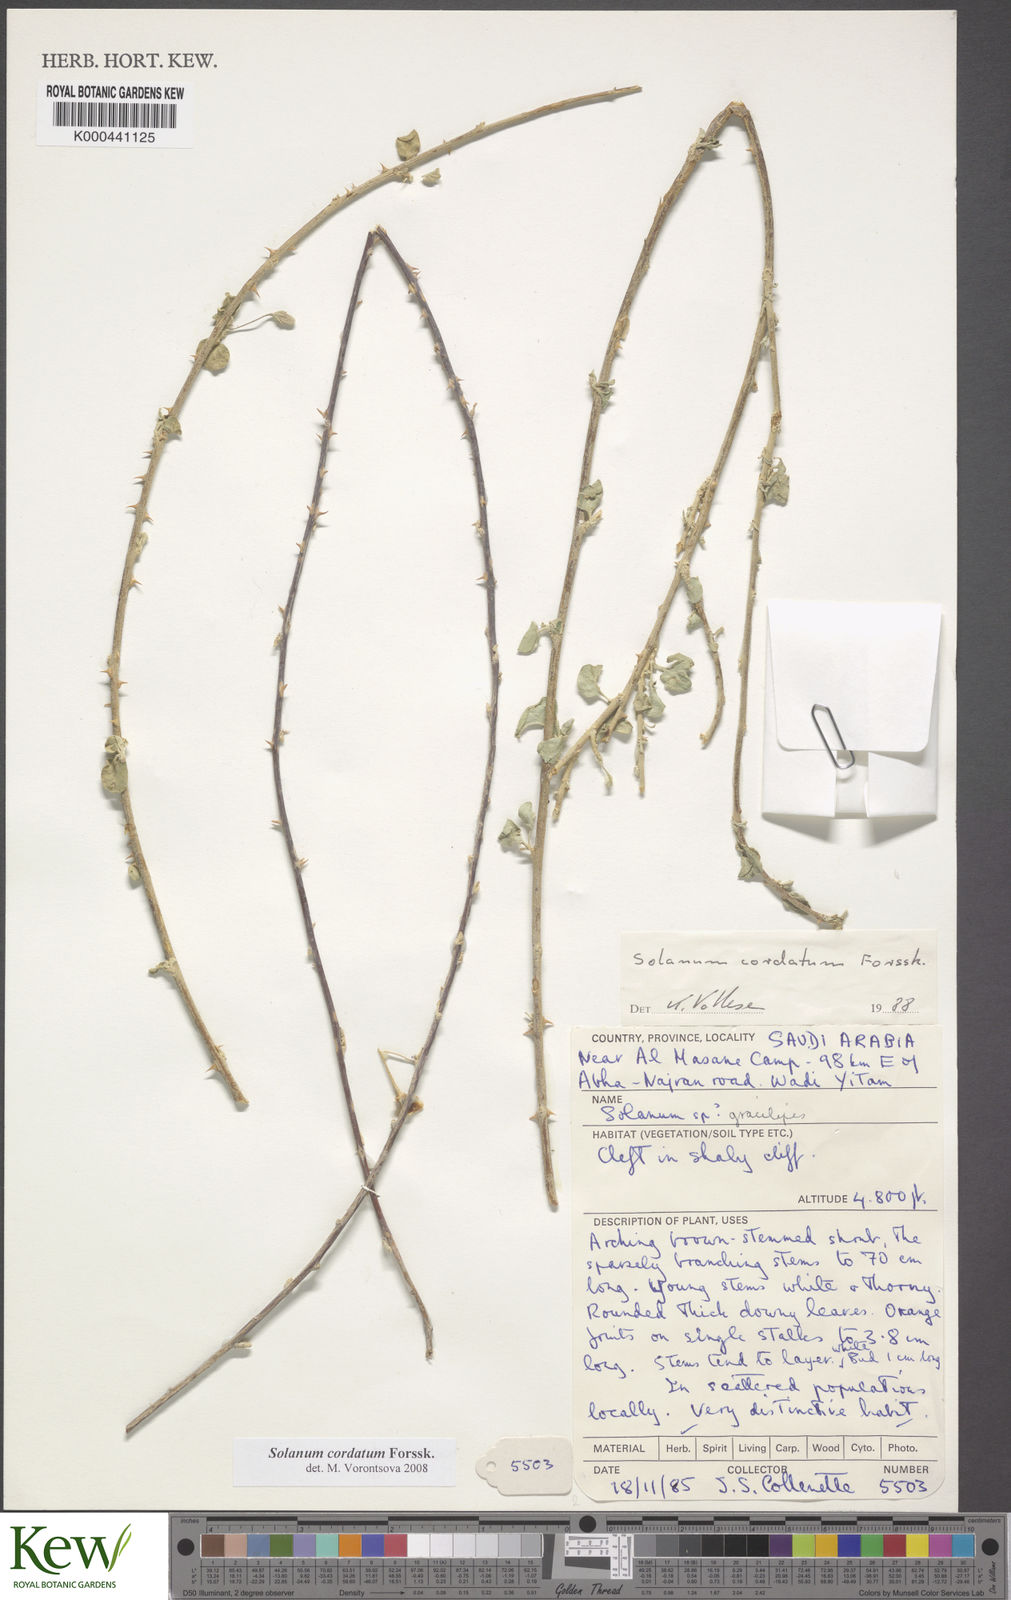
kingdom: Plantae
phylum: Tracheophyta
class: Magnoliopsida
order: Solanales
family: Solanaceae
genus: Solanum
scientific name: Solanum cordatum
